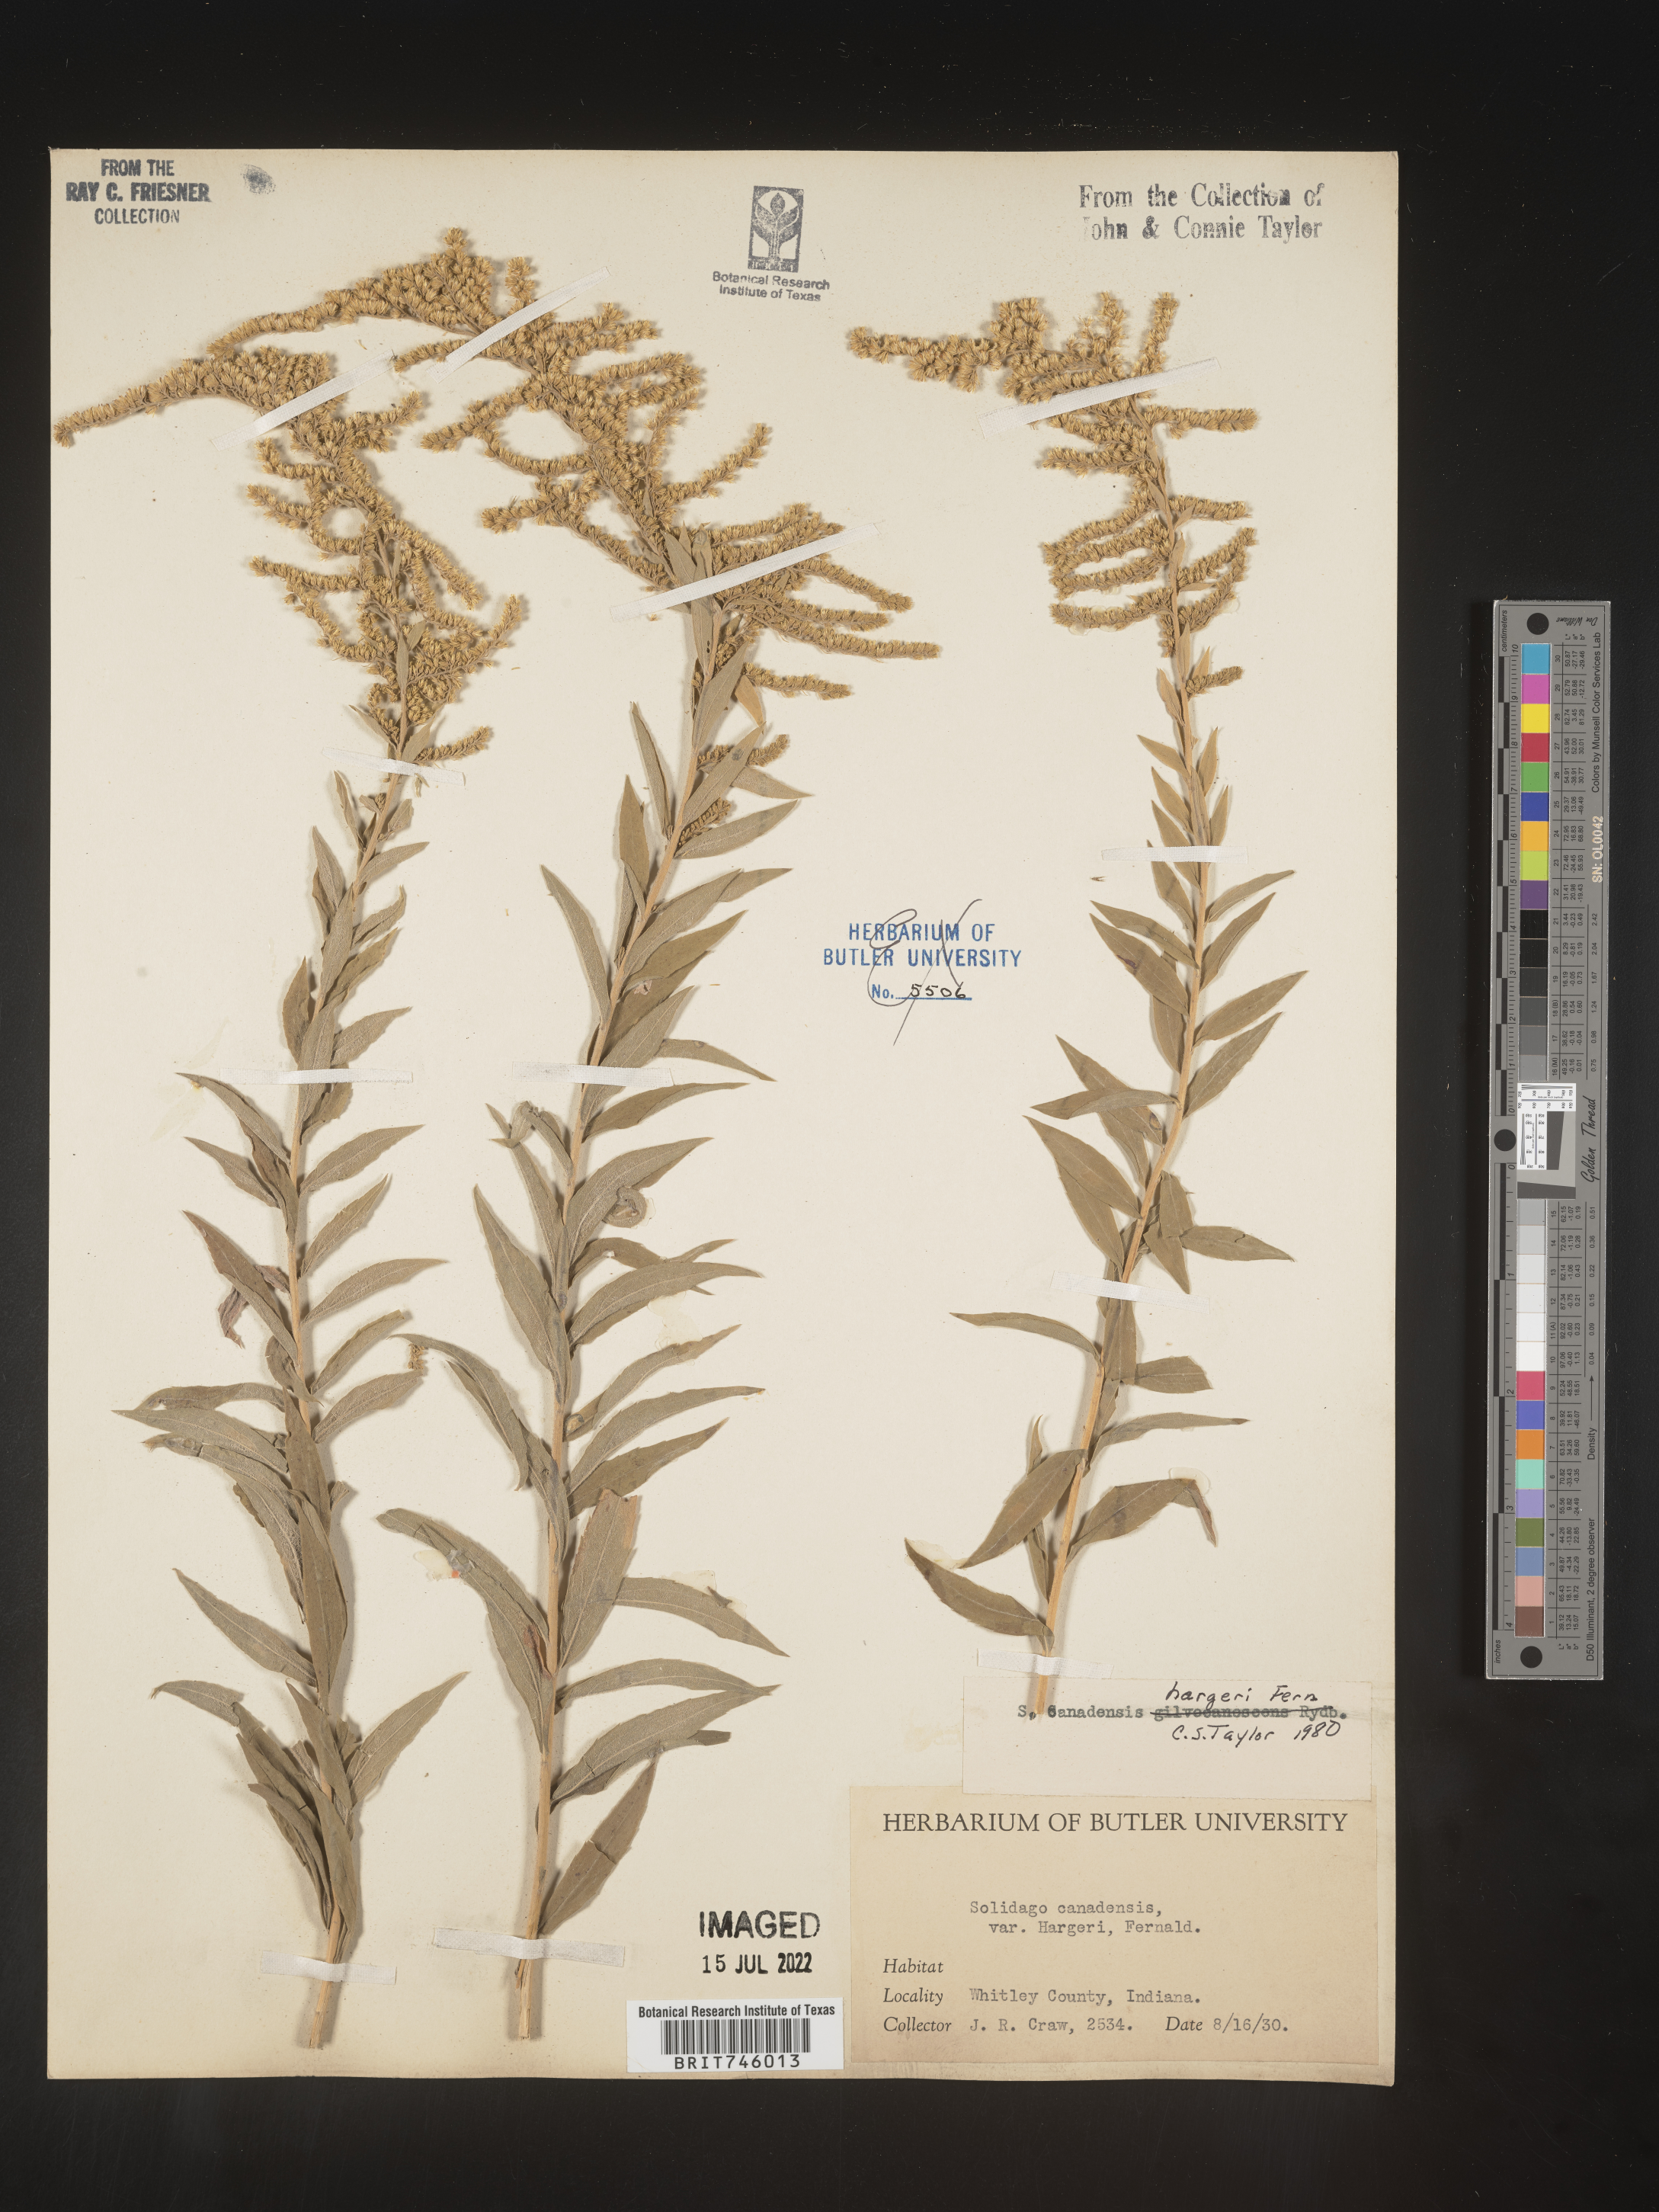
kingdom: Plantae
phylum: Tracheophyta
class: Magnoliopsida
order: Asterales
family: Asteraceae
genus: Solidago
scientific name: Solidago canadensis
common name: Canada goldenrod
